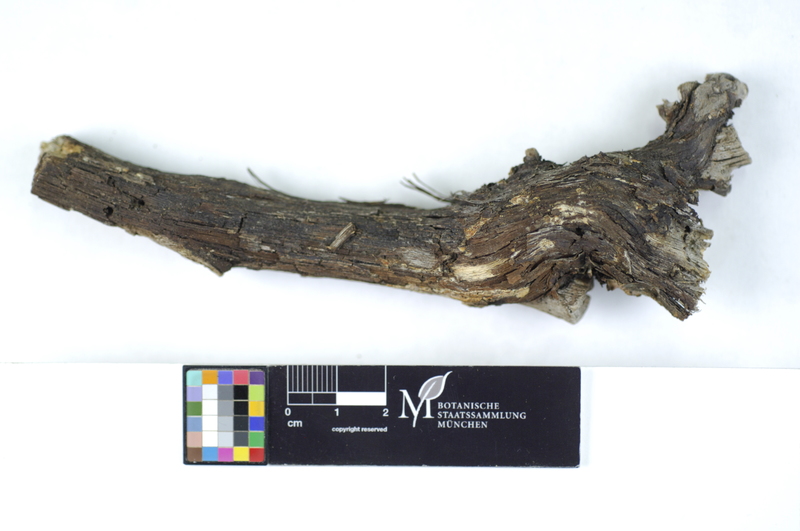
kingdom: Plantae
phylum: Tracheophyta
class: Magnoliopsida
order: Fabales
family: Fabaceae
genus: Cytisus
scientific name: Cytisus proliferus
